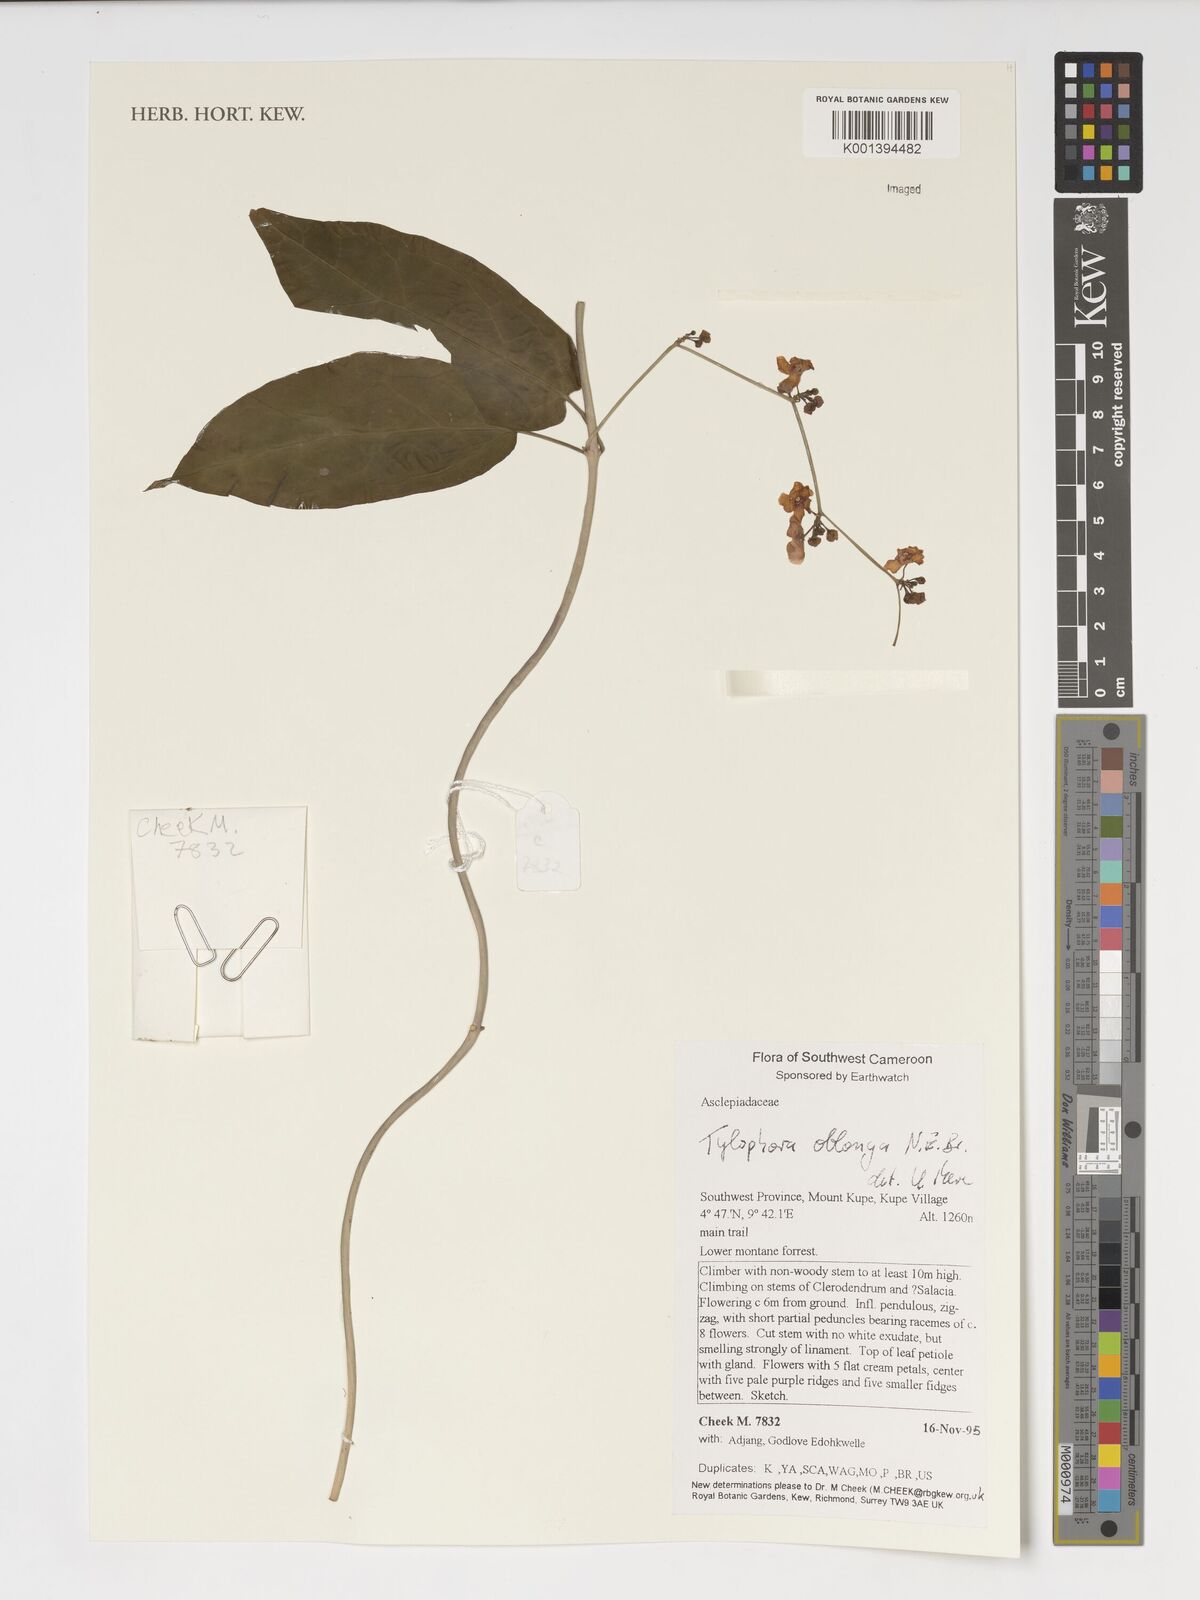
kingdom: Plantae
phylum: Tracheophyta
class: Magnoliopsida
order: Gentianales
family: Apocynaceae
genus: Vincetoxicum
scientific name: Vincetoxicum oblongum
